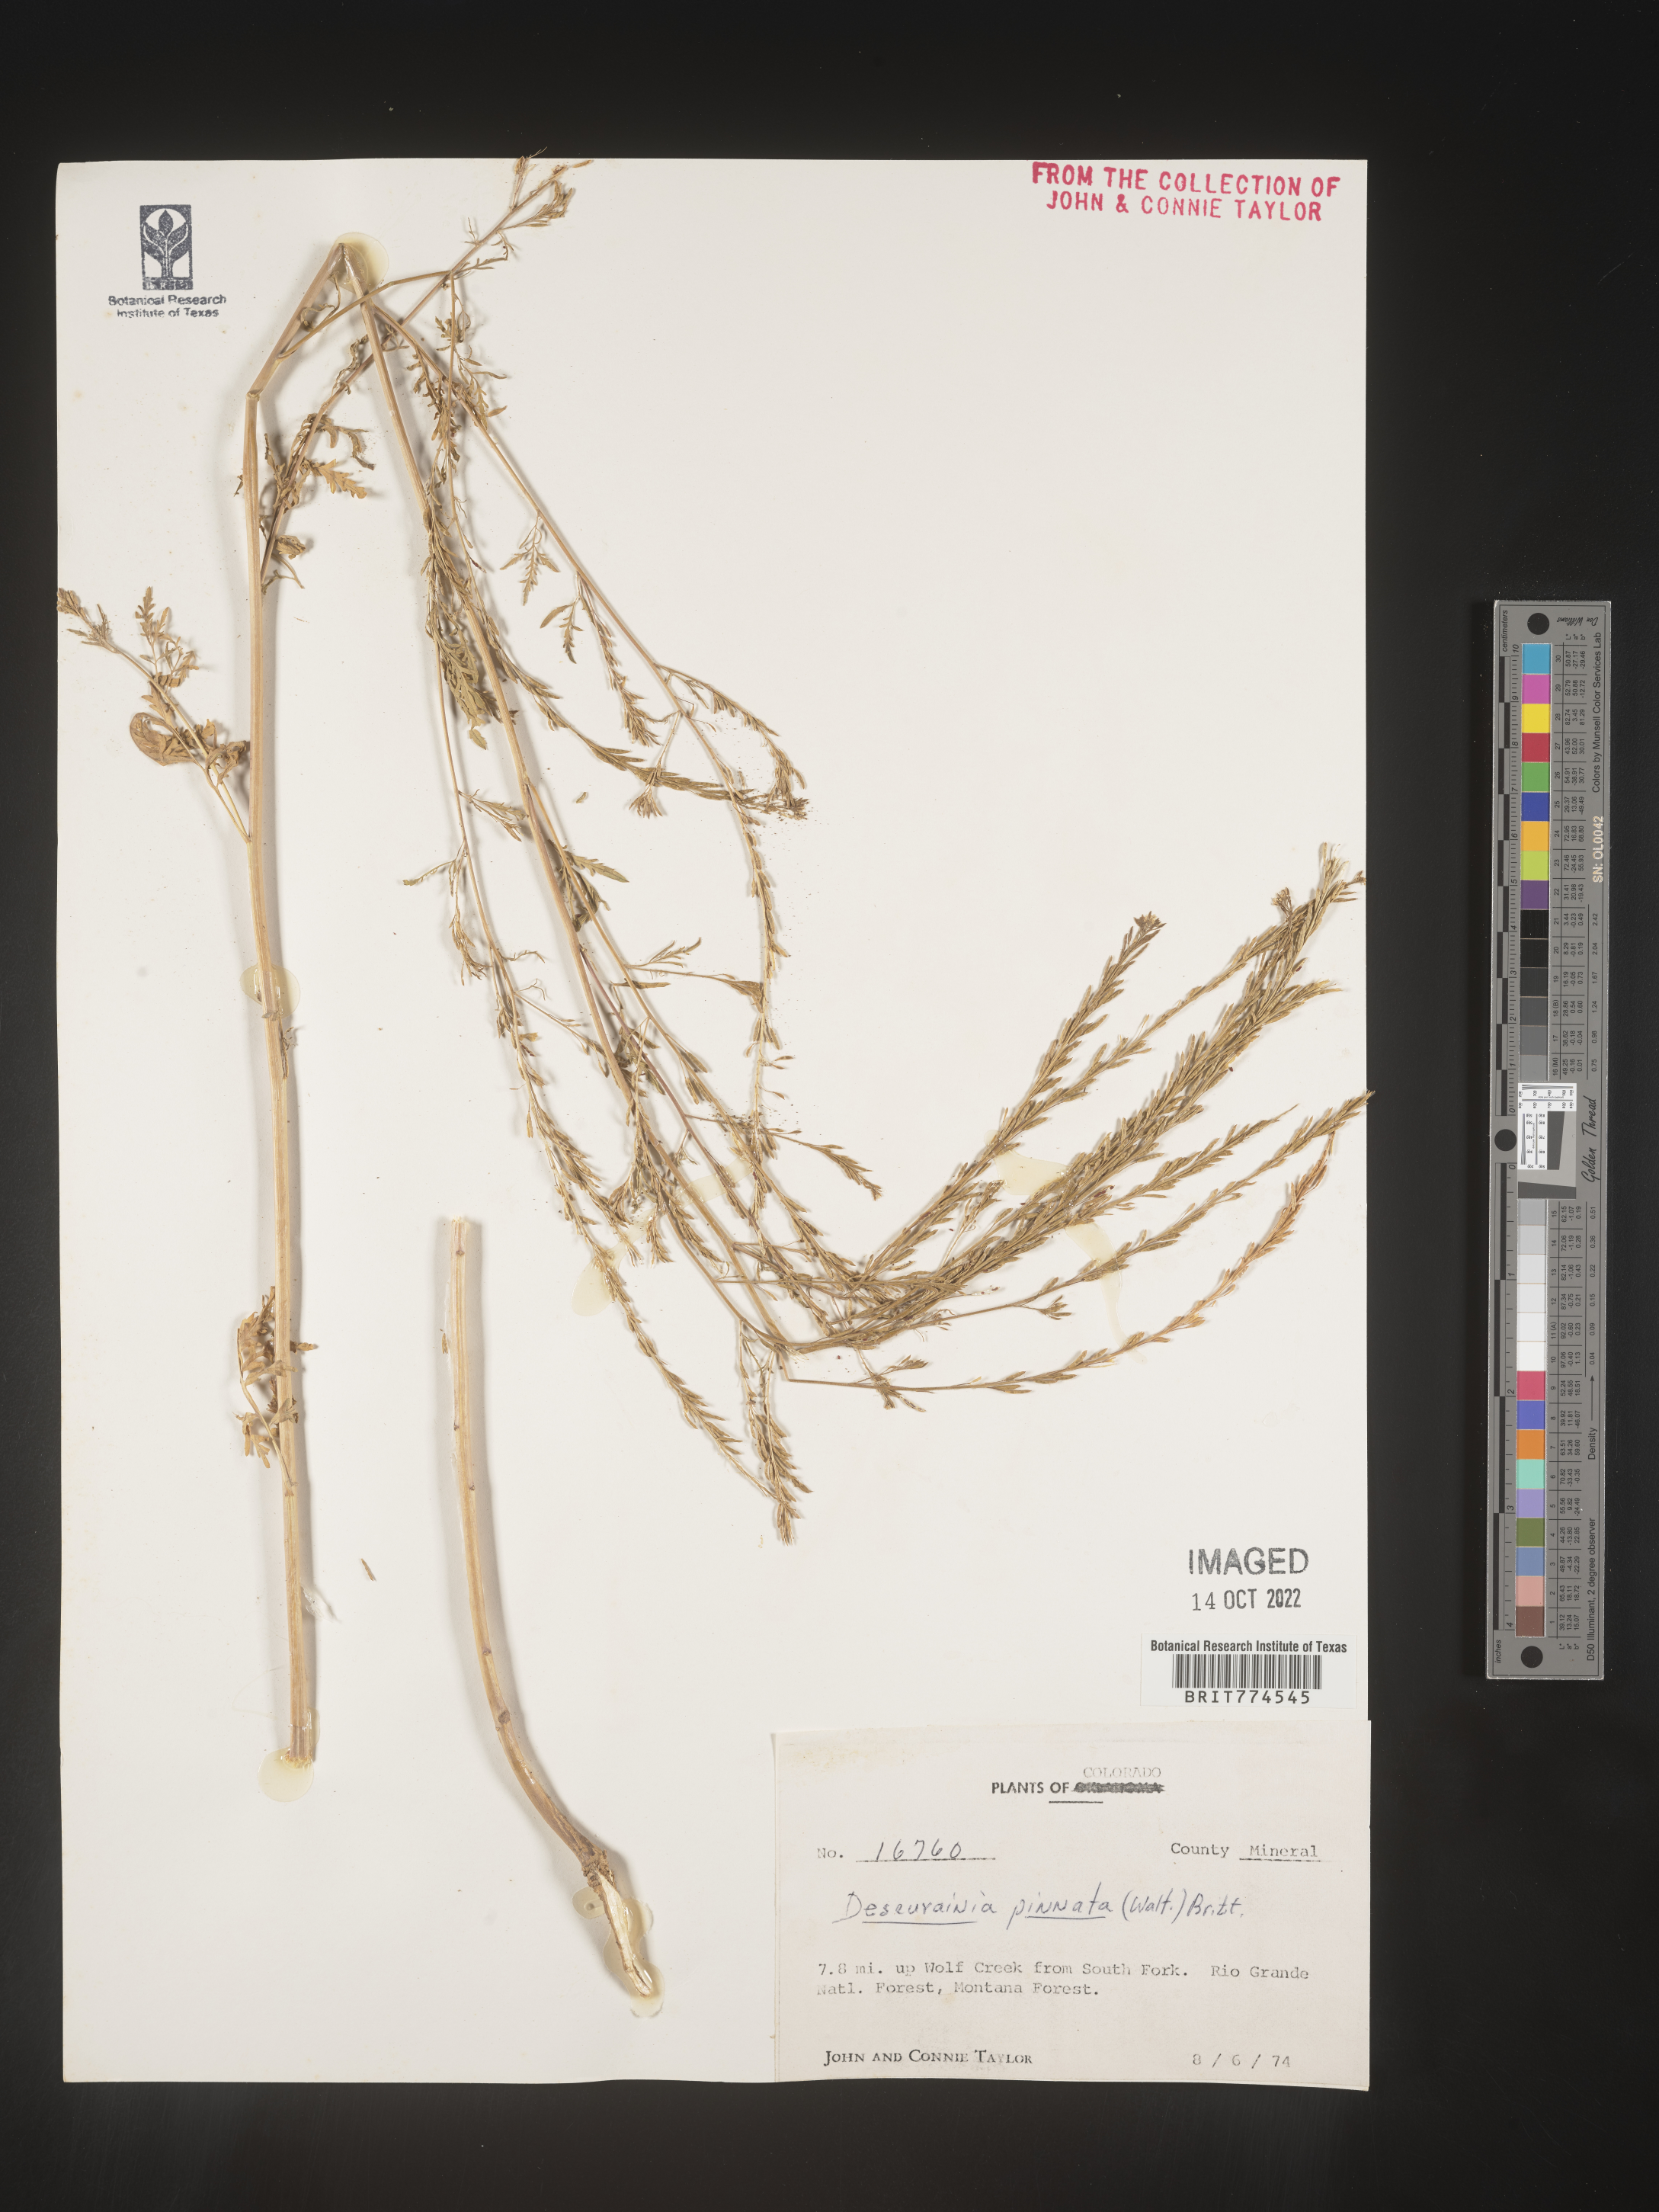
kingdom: Plantae
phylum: Tracheophyta
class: Magnoliopsida
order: Brassicales
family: Brassicaceae
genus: Descurainia
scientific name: Descurainia pinnata
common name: Western tansy mustard
